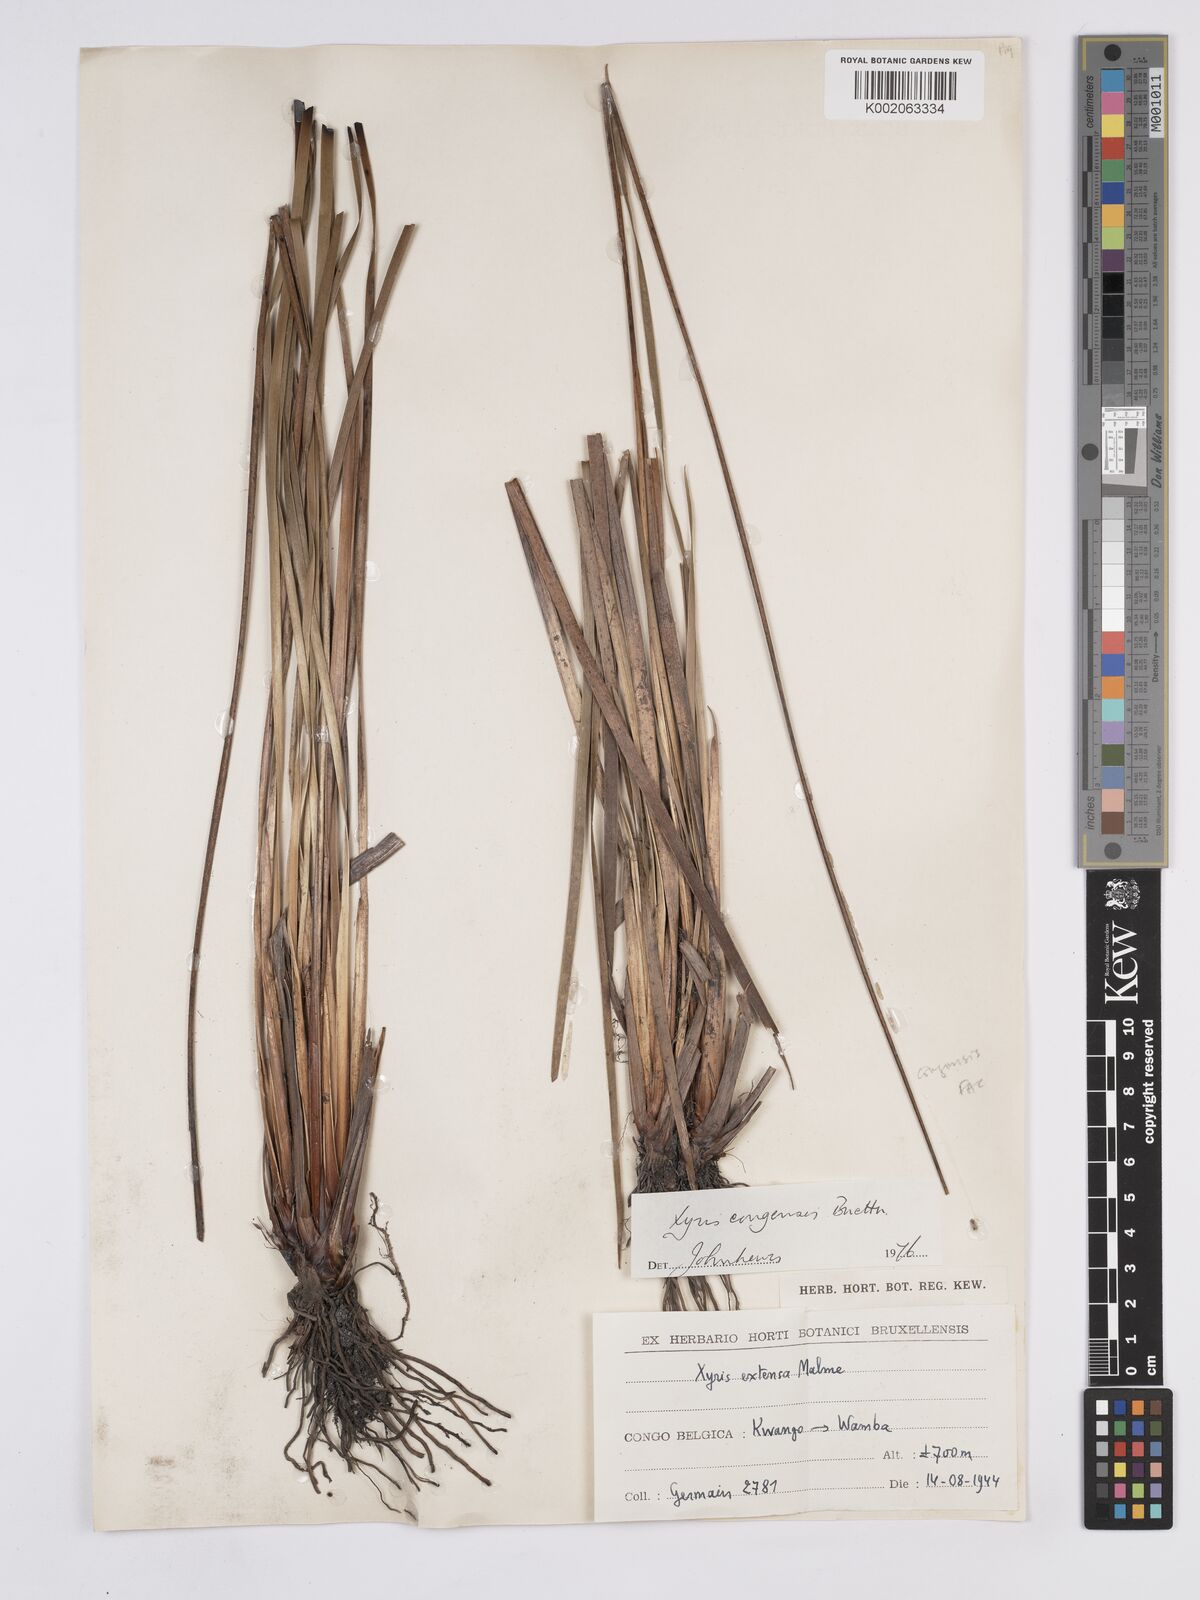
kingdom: Plantae
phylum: Tracheophyta
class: Liliopsida
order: Poales
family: Xyridaceae
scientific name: Xyridaceae
